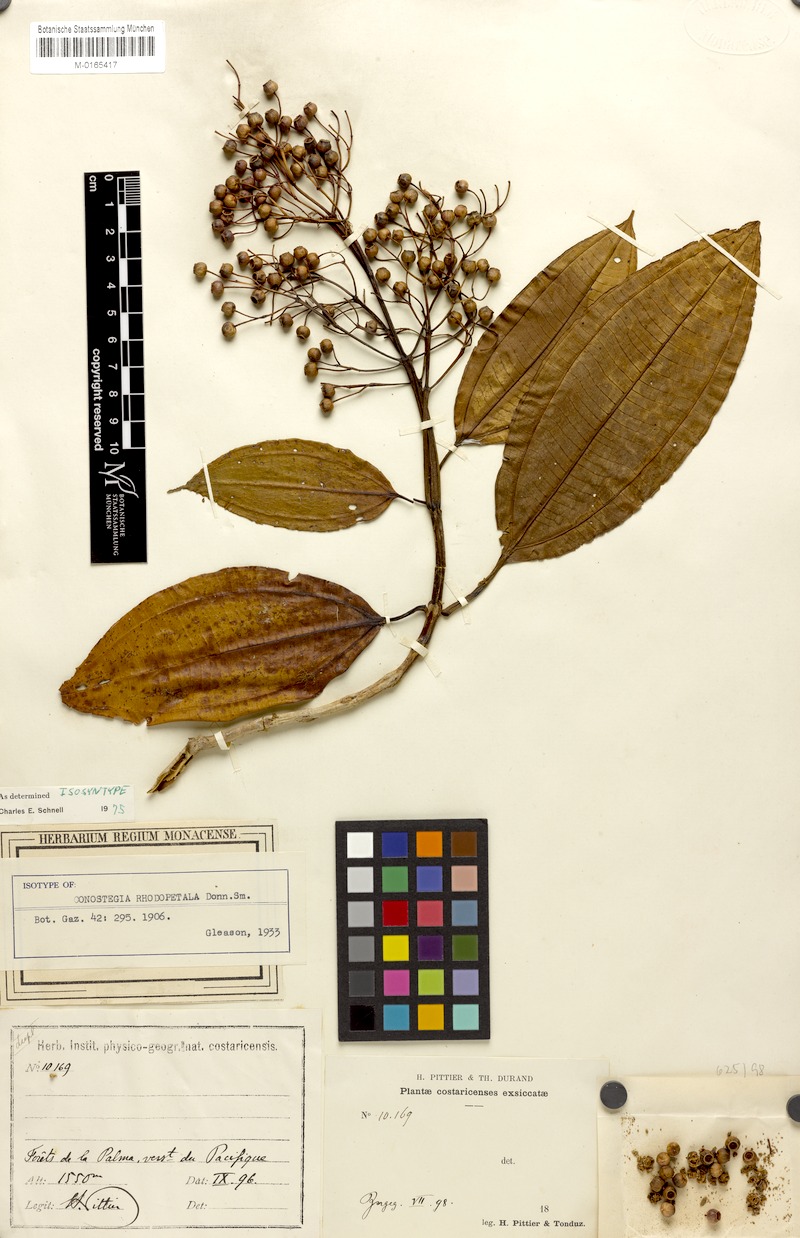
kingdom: Plantae
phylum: Tracheophyta
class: Magnoliopsida
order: Myrtales
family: Melastomataceae
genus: Miconia
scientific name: Miconia rhodopetala
